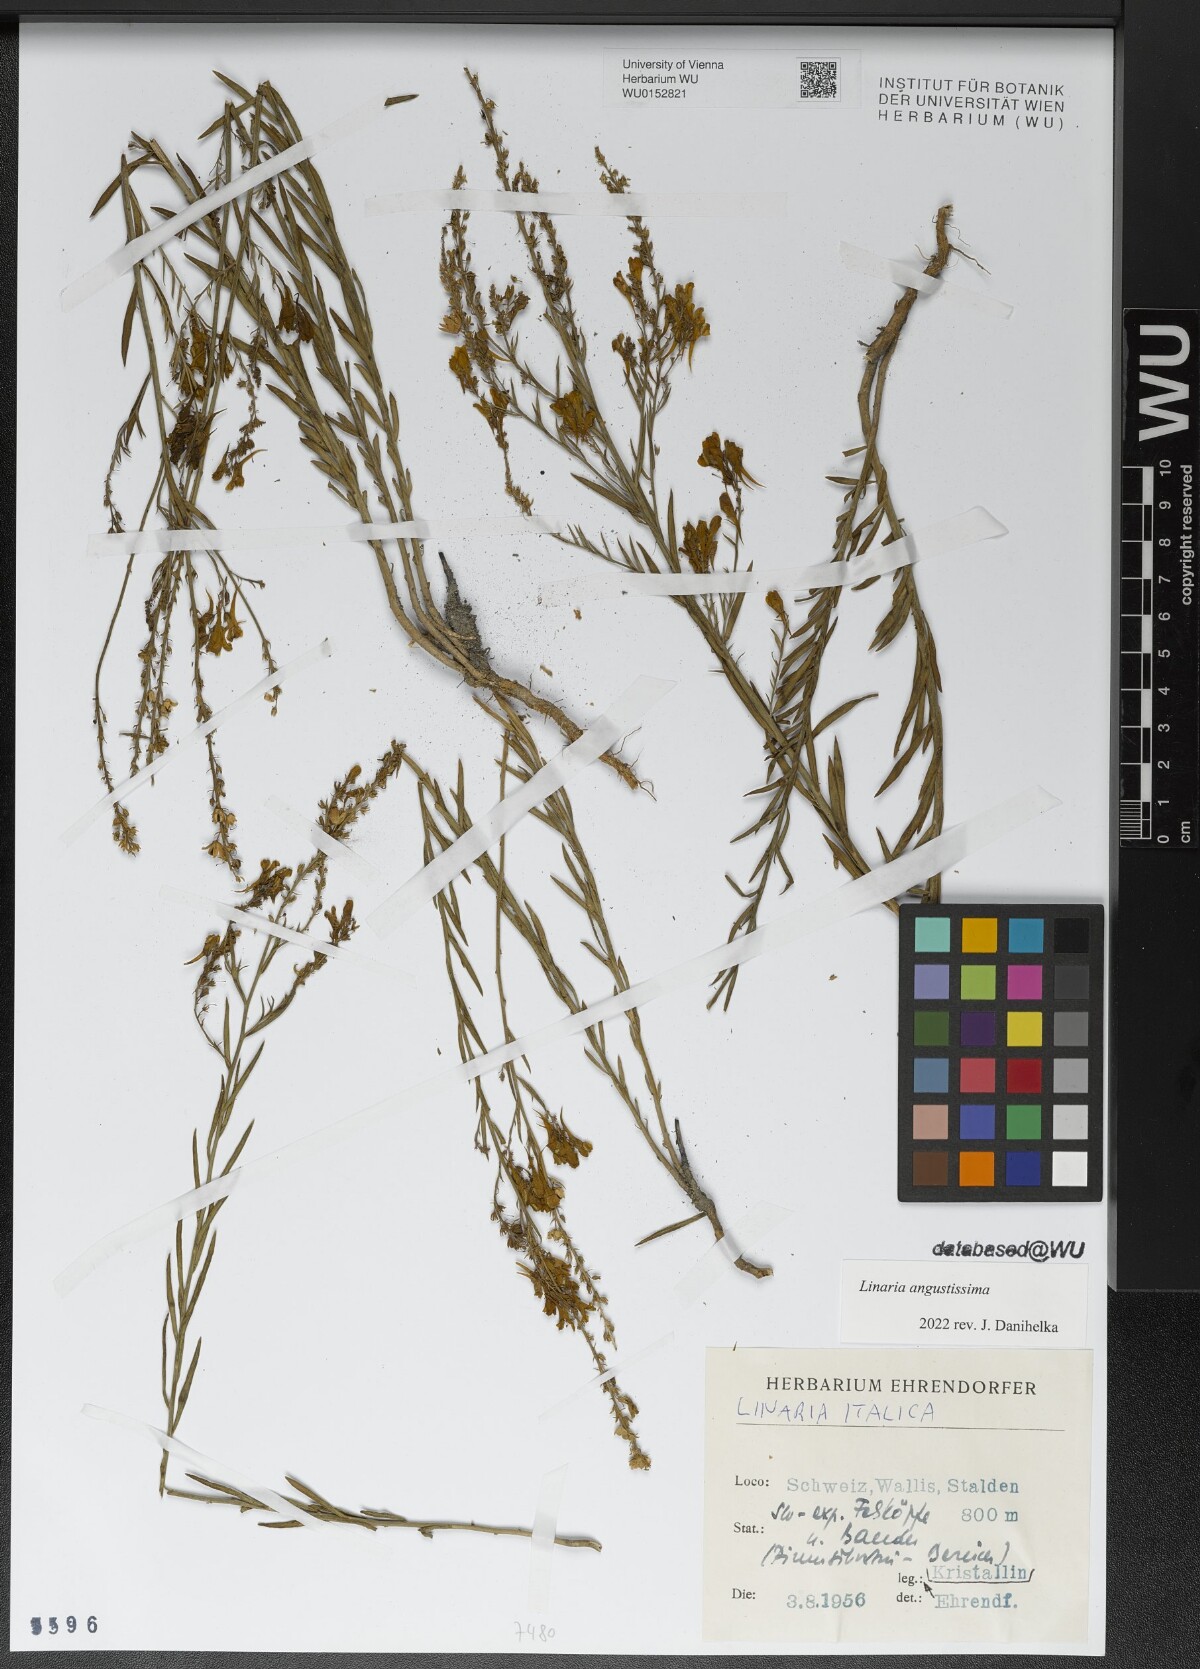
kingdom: Plantae
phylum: Tracheophyta
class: Magnoliopsida
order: Lamiales
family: Plantaginaceae
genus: Linaria
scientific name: Linaria angustissima
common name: Italian toadflax
